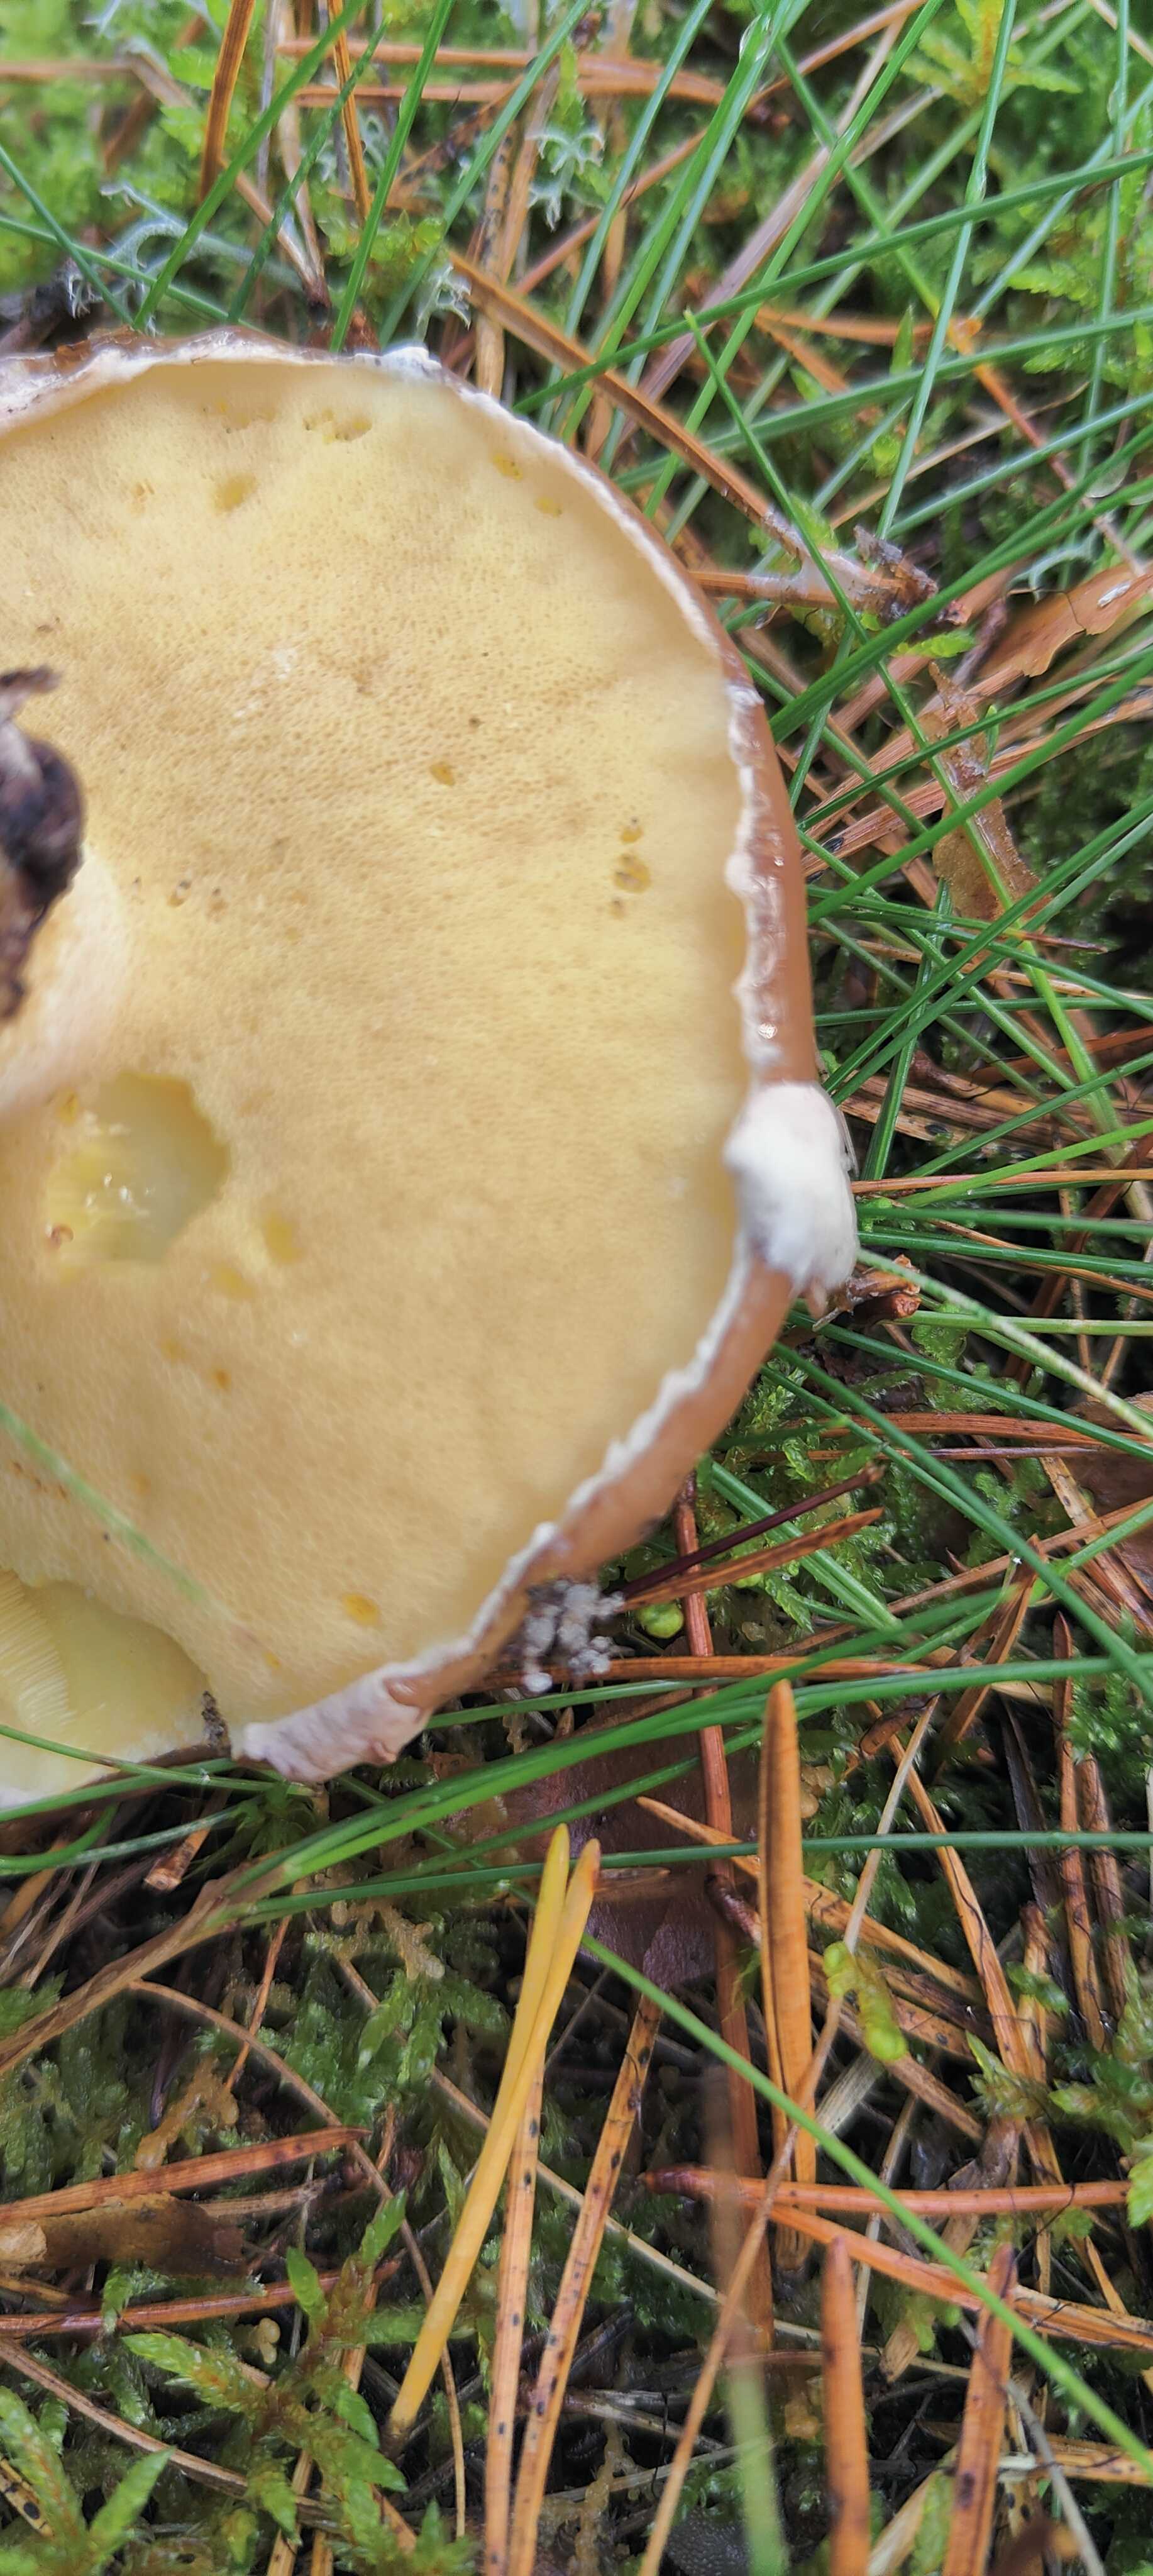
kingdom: Fungi
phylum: Basidiomycota
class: Agaricomycetes
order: Boletales
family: Suillaceae
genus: Suillus
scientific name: Suillus luteus
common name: brungul slimrørhat
